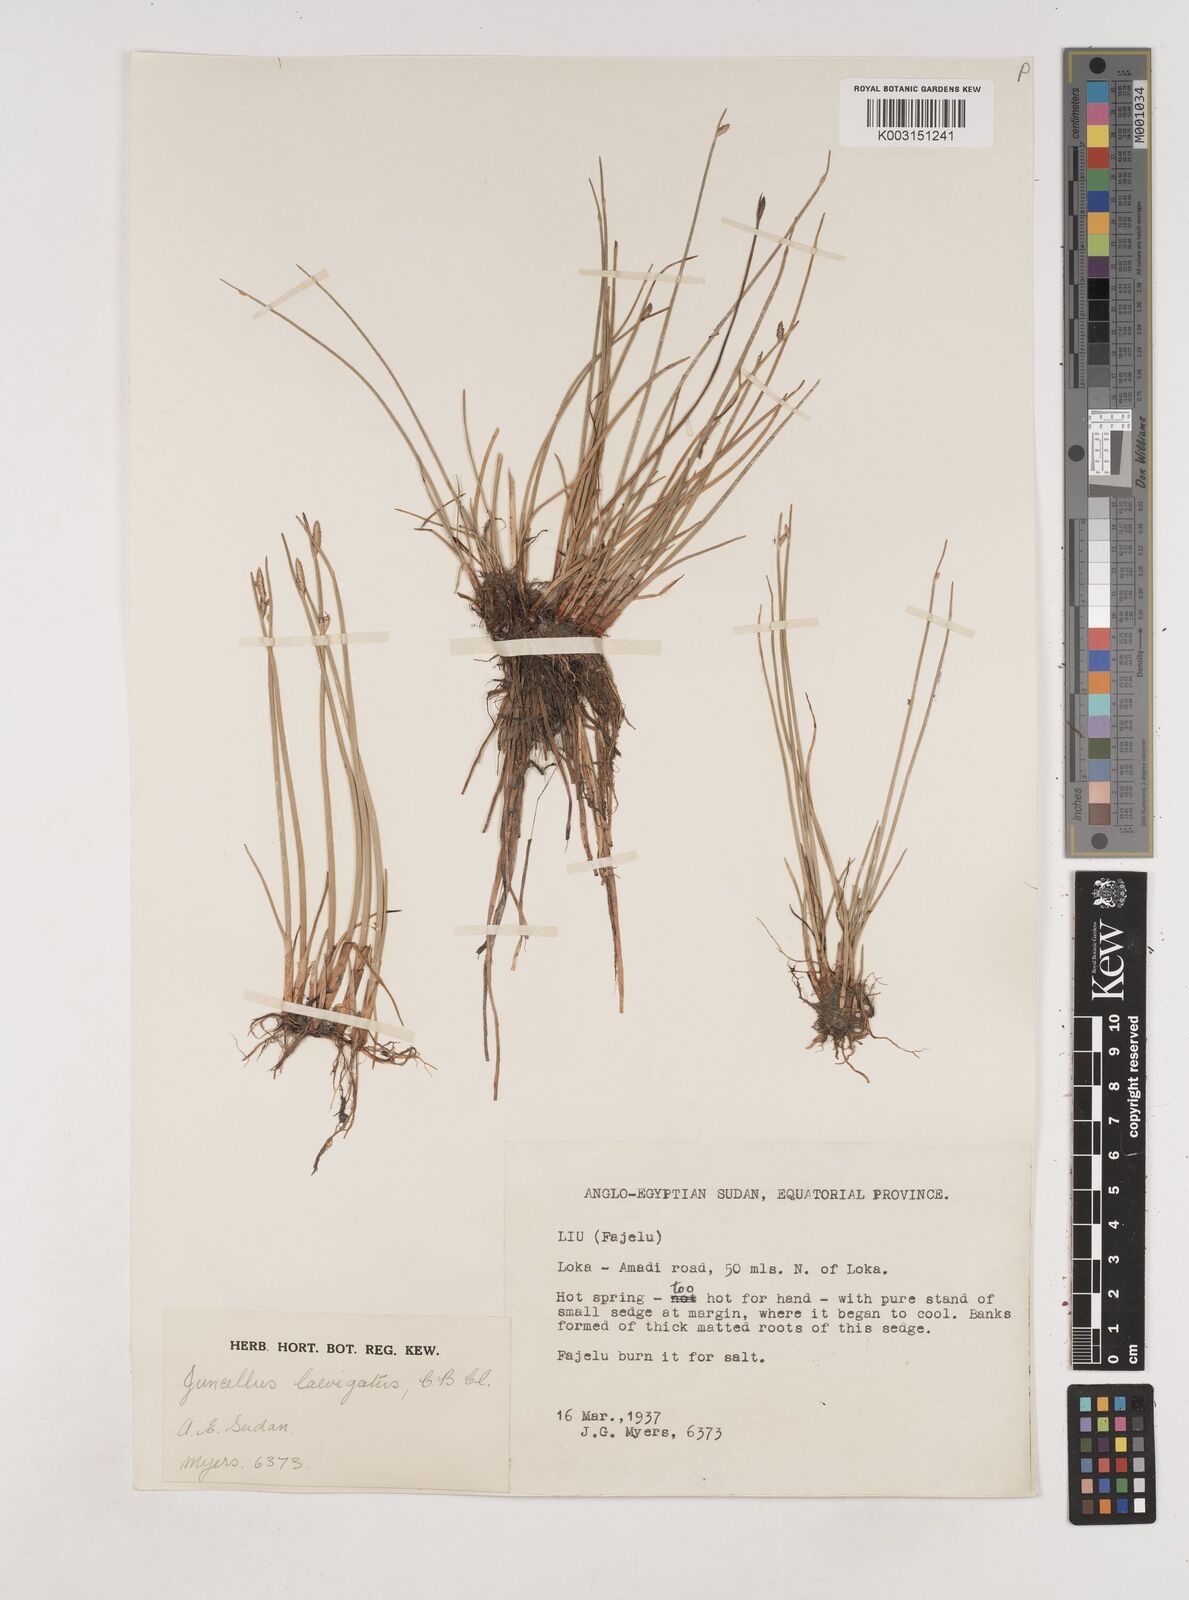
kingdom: Plantae
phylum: Tracheophyta
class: Liliopsida
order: Poales
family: Cyperaceae
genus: Cyperus
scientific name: Cyperus laevigatus
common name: Smooth flat sedge
